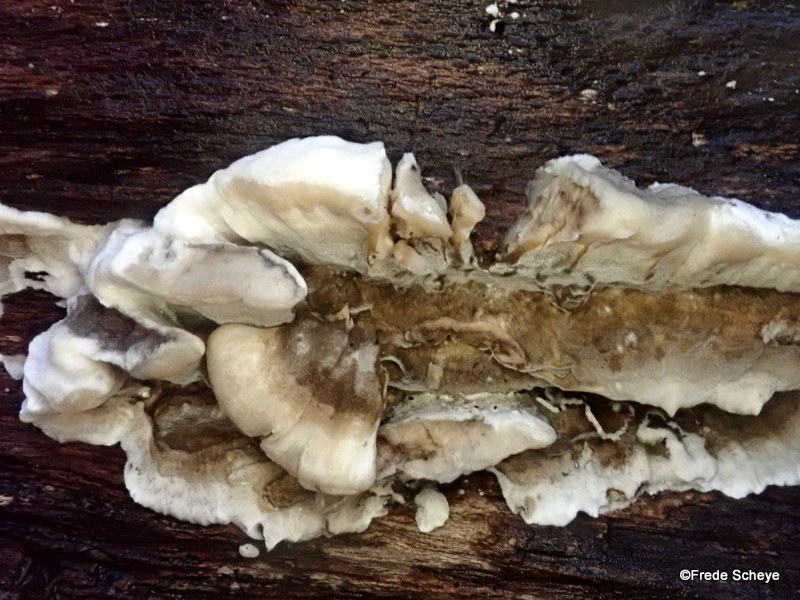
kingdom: Fungi
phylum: Basidiomycota
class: Agaricomycetes
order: Polyporales
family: Phanerochaetaceae
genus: Bjerkandera
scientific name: Bjerkandera adusta
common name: sveden sodporesvamp
